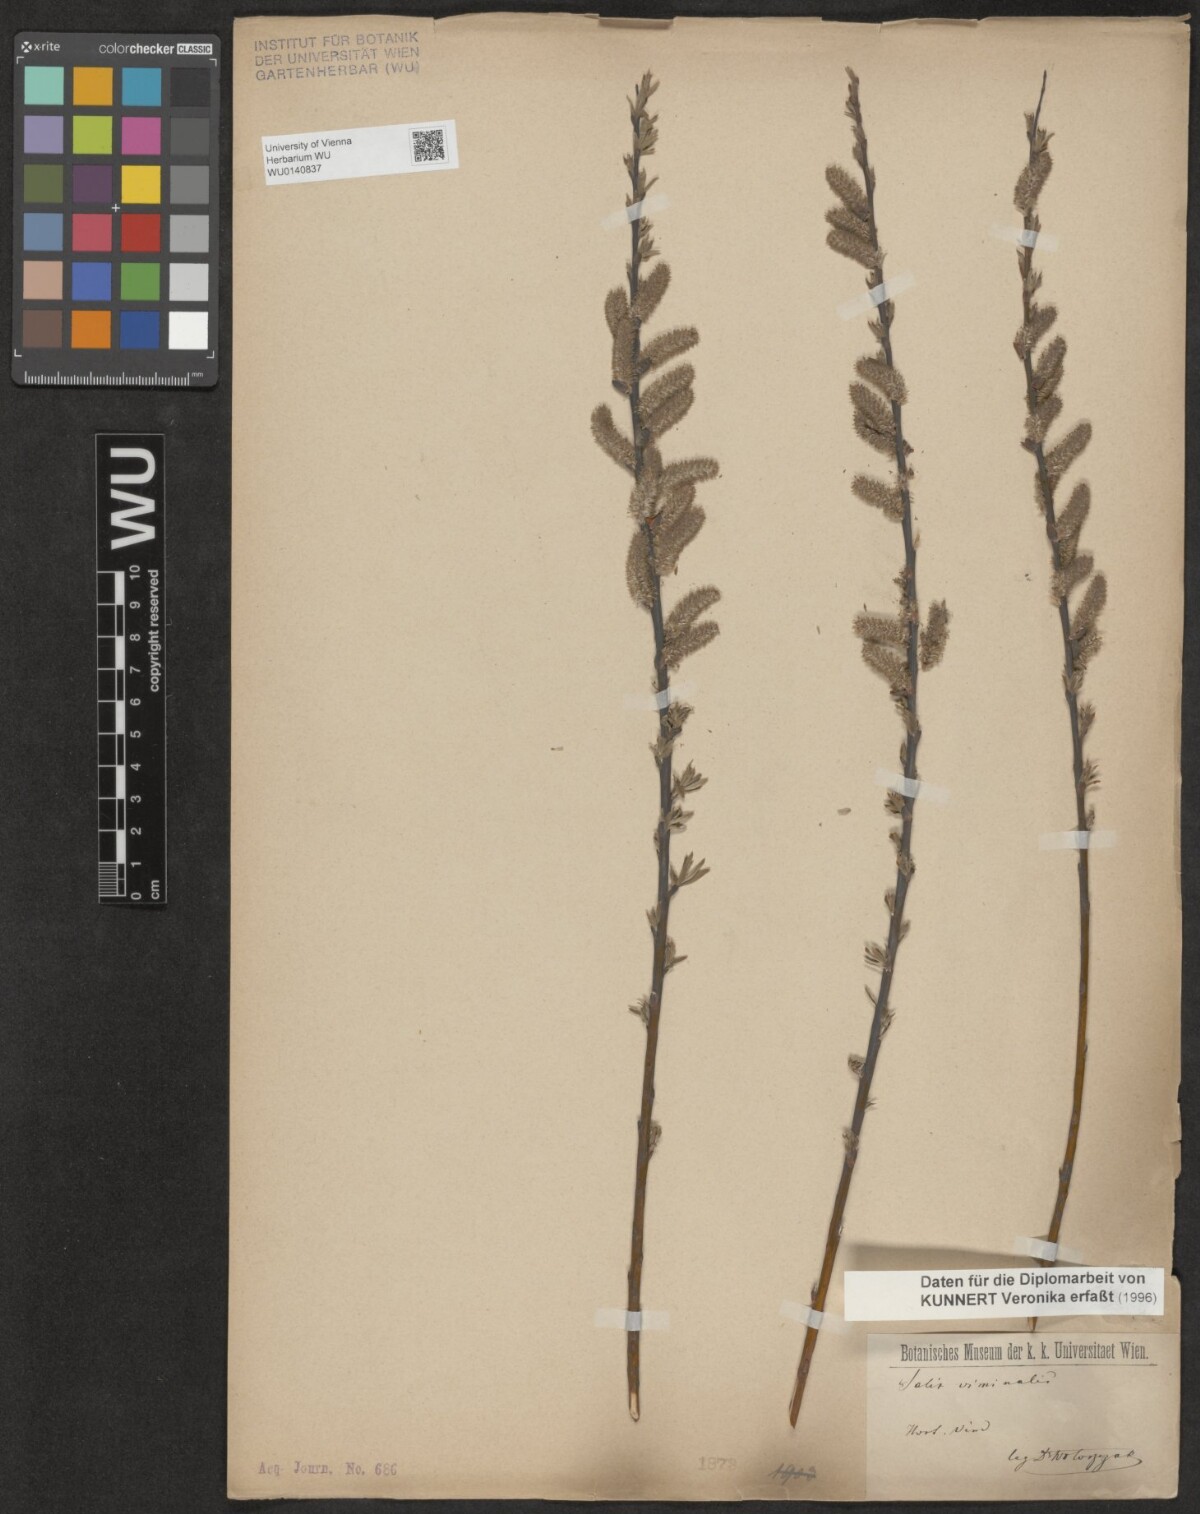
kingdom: Plantae
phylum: Tracheophyta
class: Magnoliopsida
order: Malpighiales
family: Salicaceae
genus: Salix
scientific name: Salix viminalis
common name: Osier
